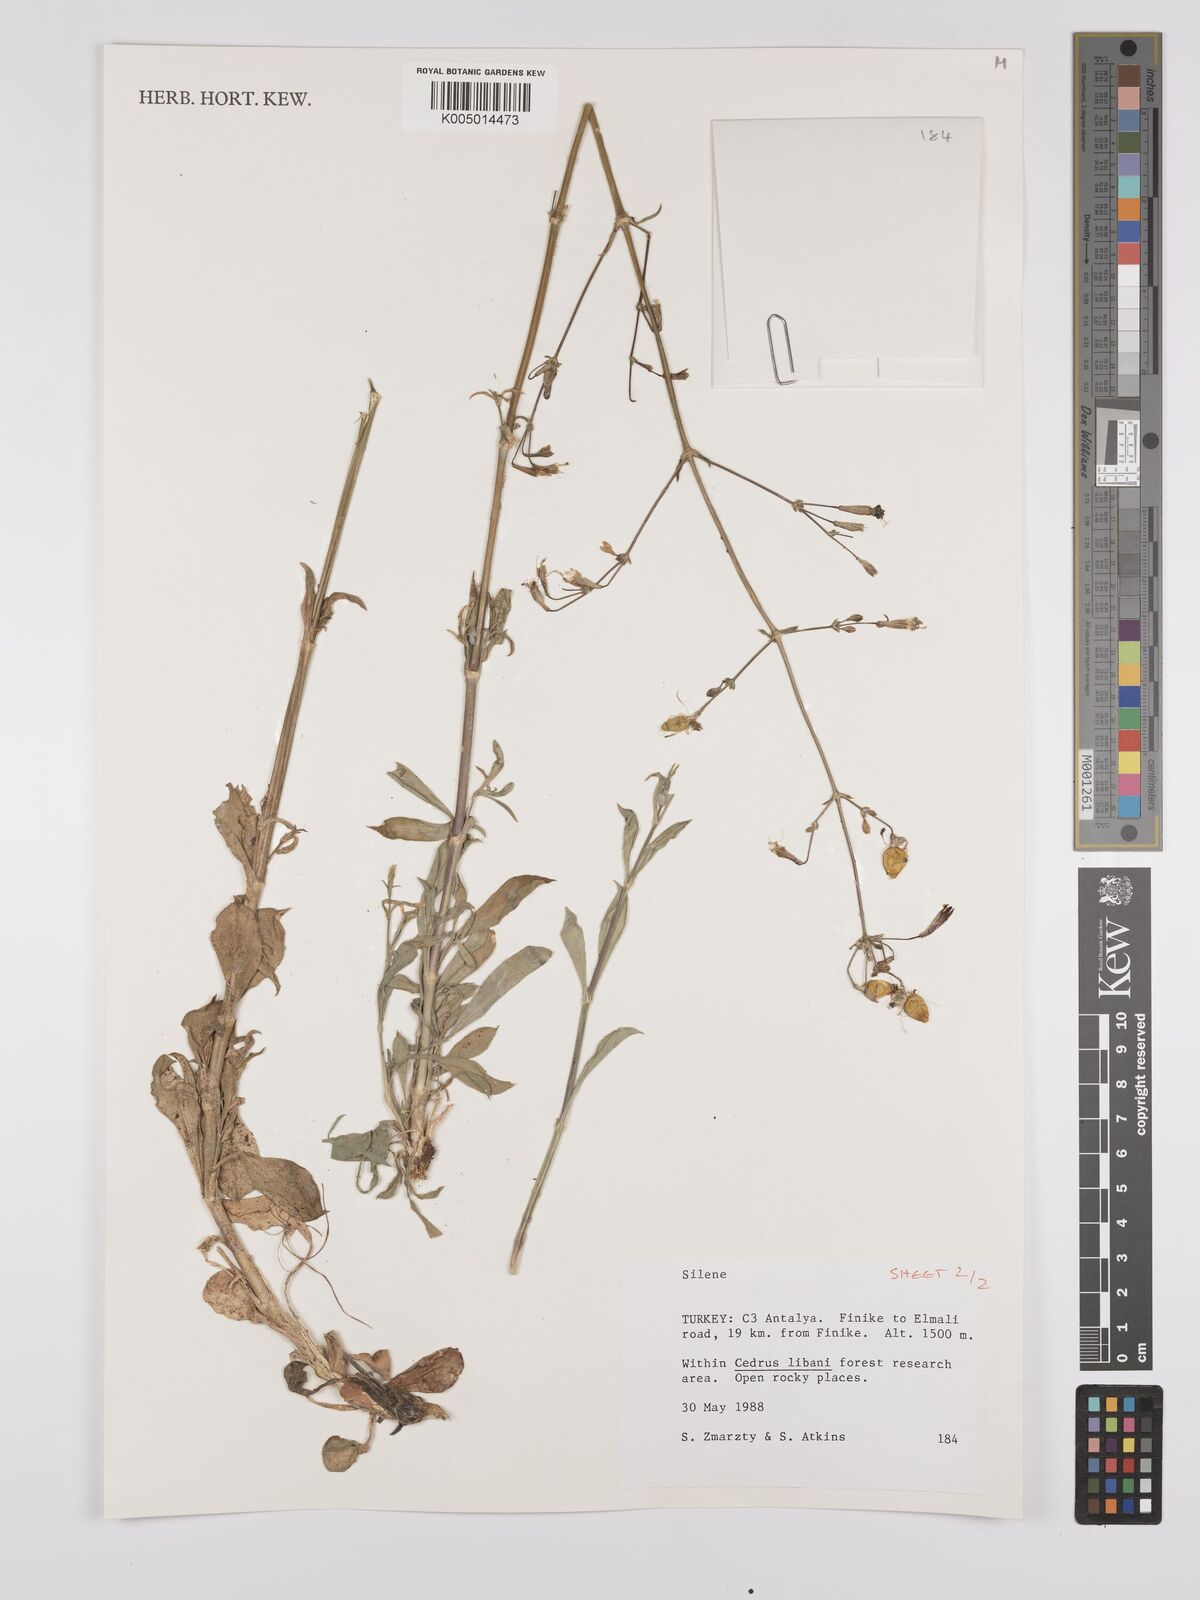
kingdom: Plantae
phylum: Tracheophyta
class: Magnoliopsida
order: Caryophyllales
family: Caryophyllaceae
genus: Silene
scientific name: Silene
